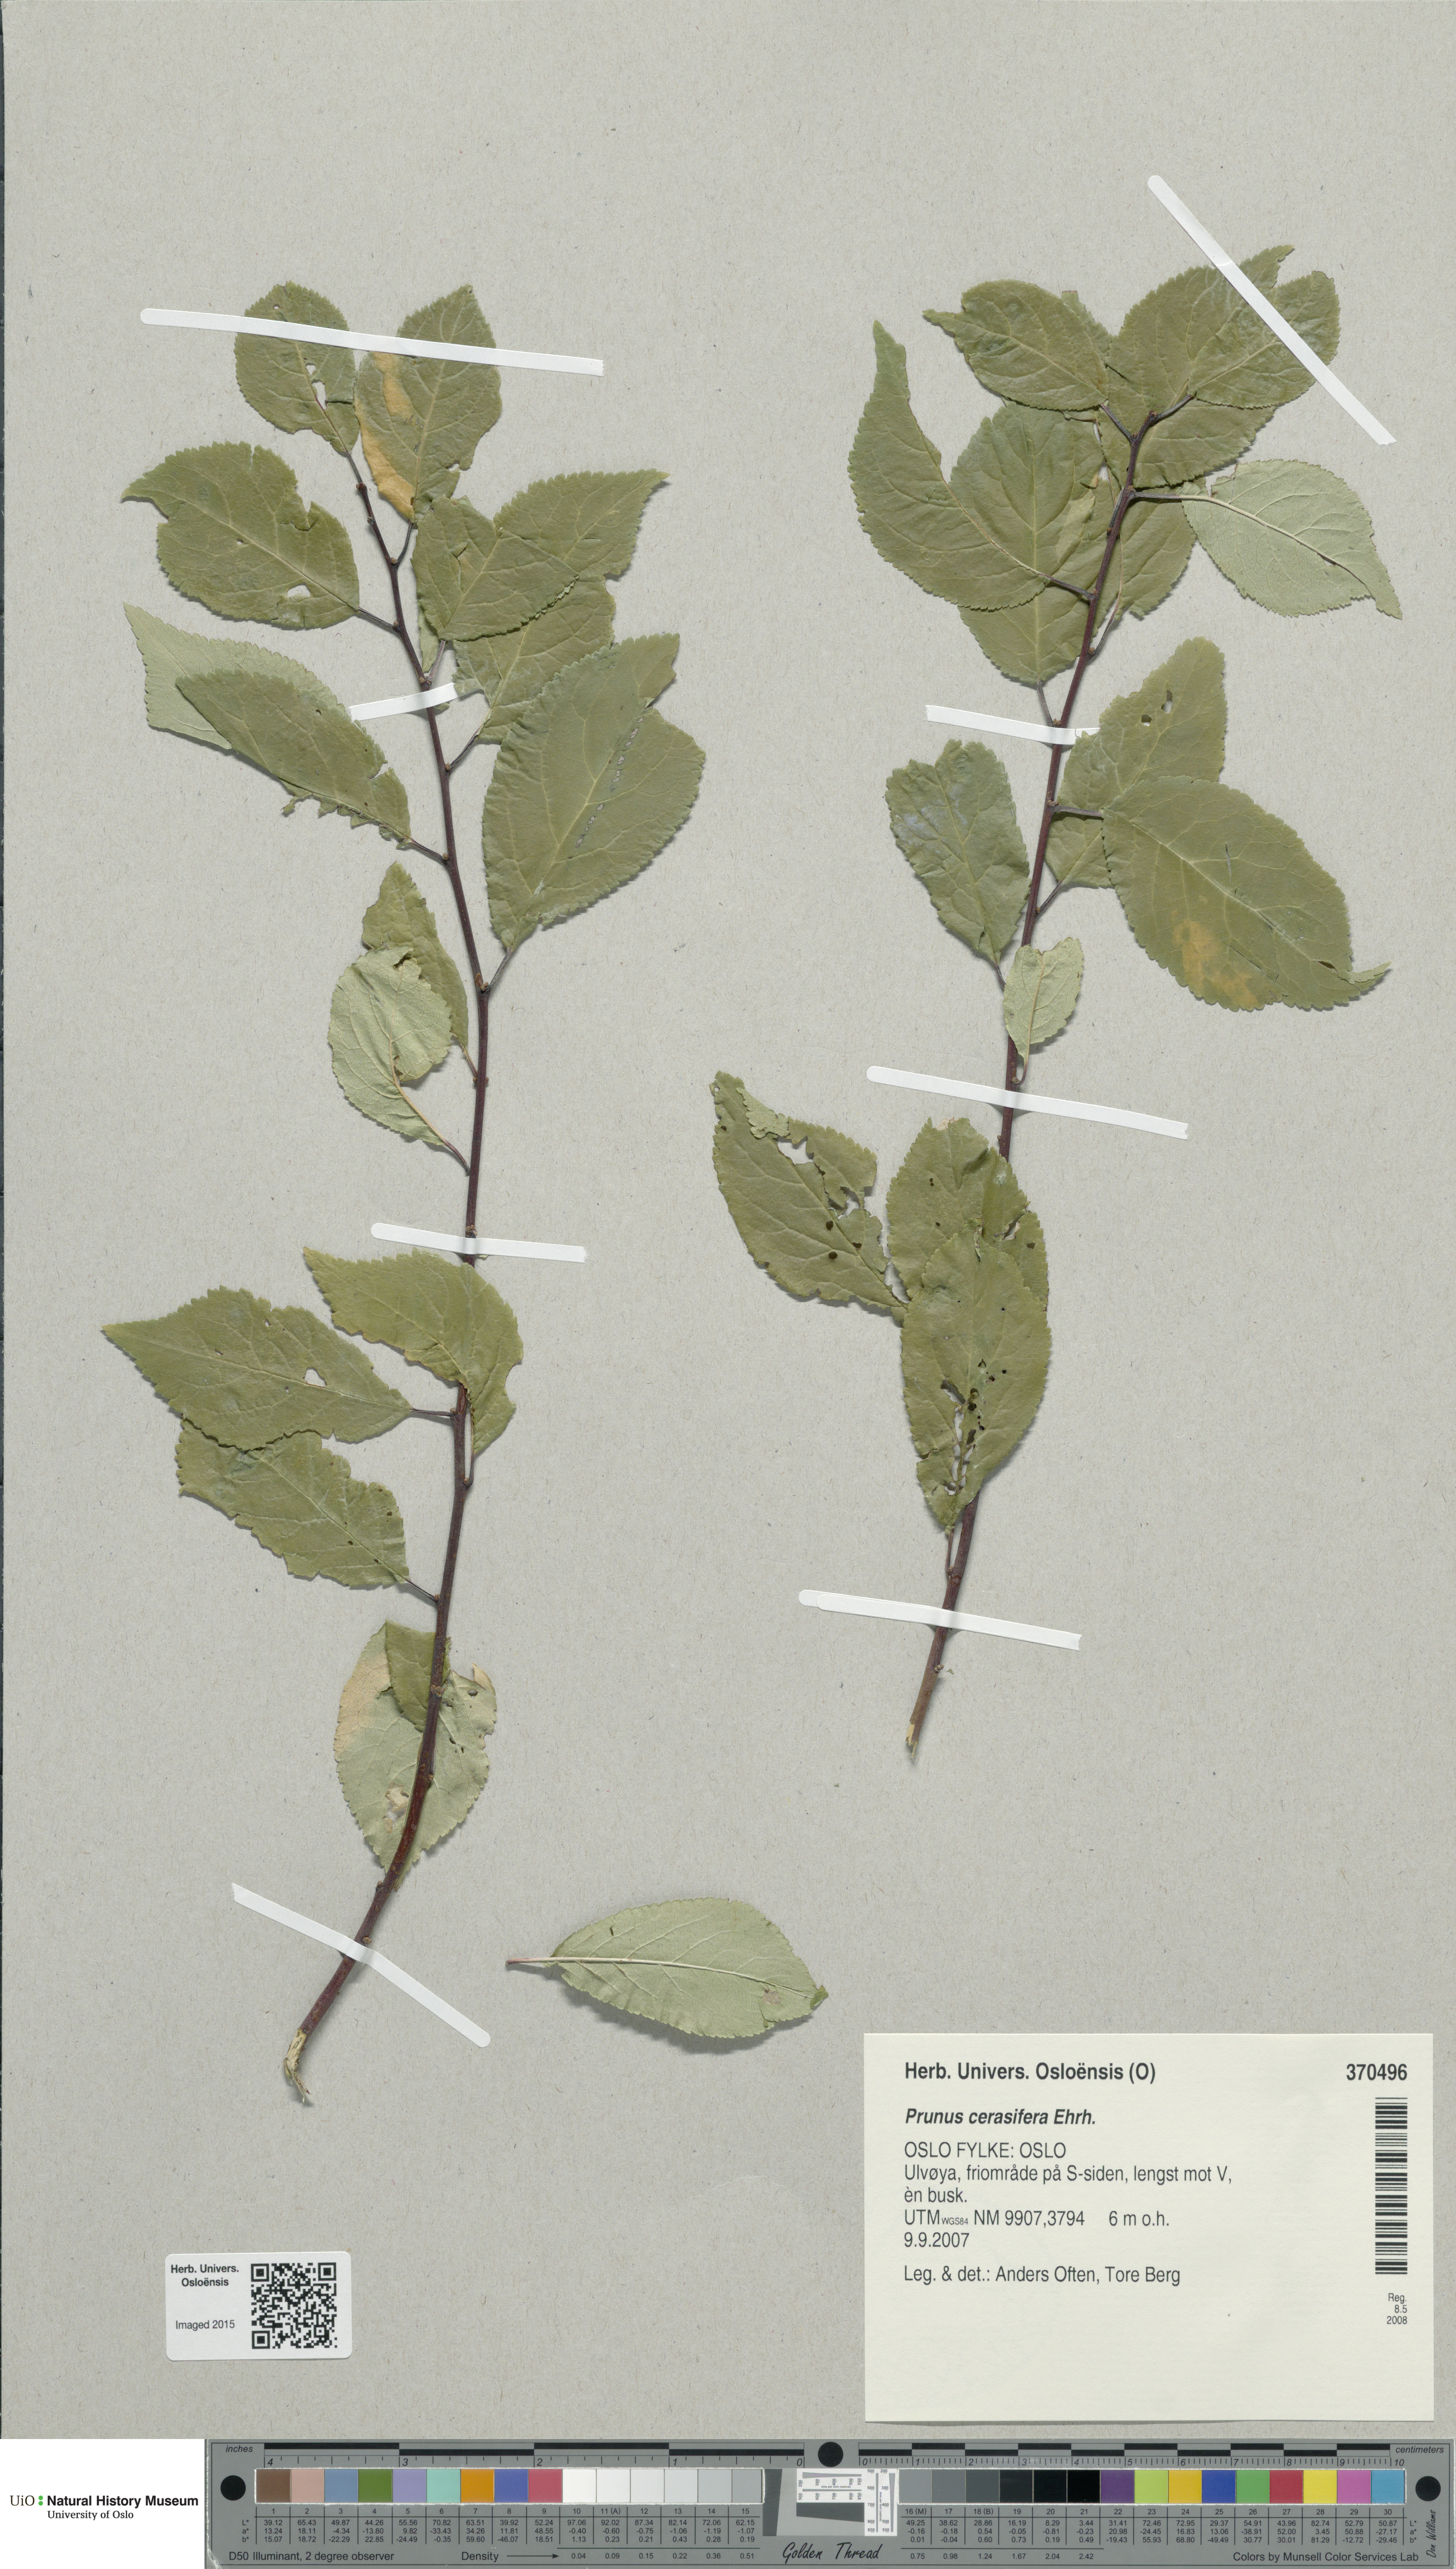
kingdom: Plantae
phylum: Tracheophyta
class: Magnoliopsida
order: Rosales
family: Rosaceae
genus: Prunus
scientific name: Prunus cerasifera
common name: Cherry plum
